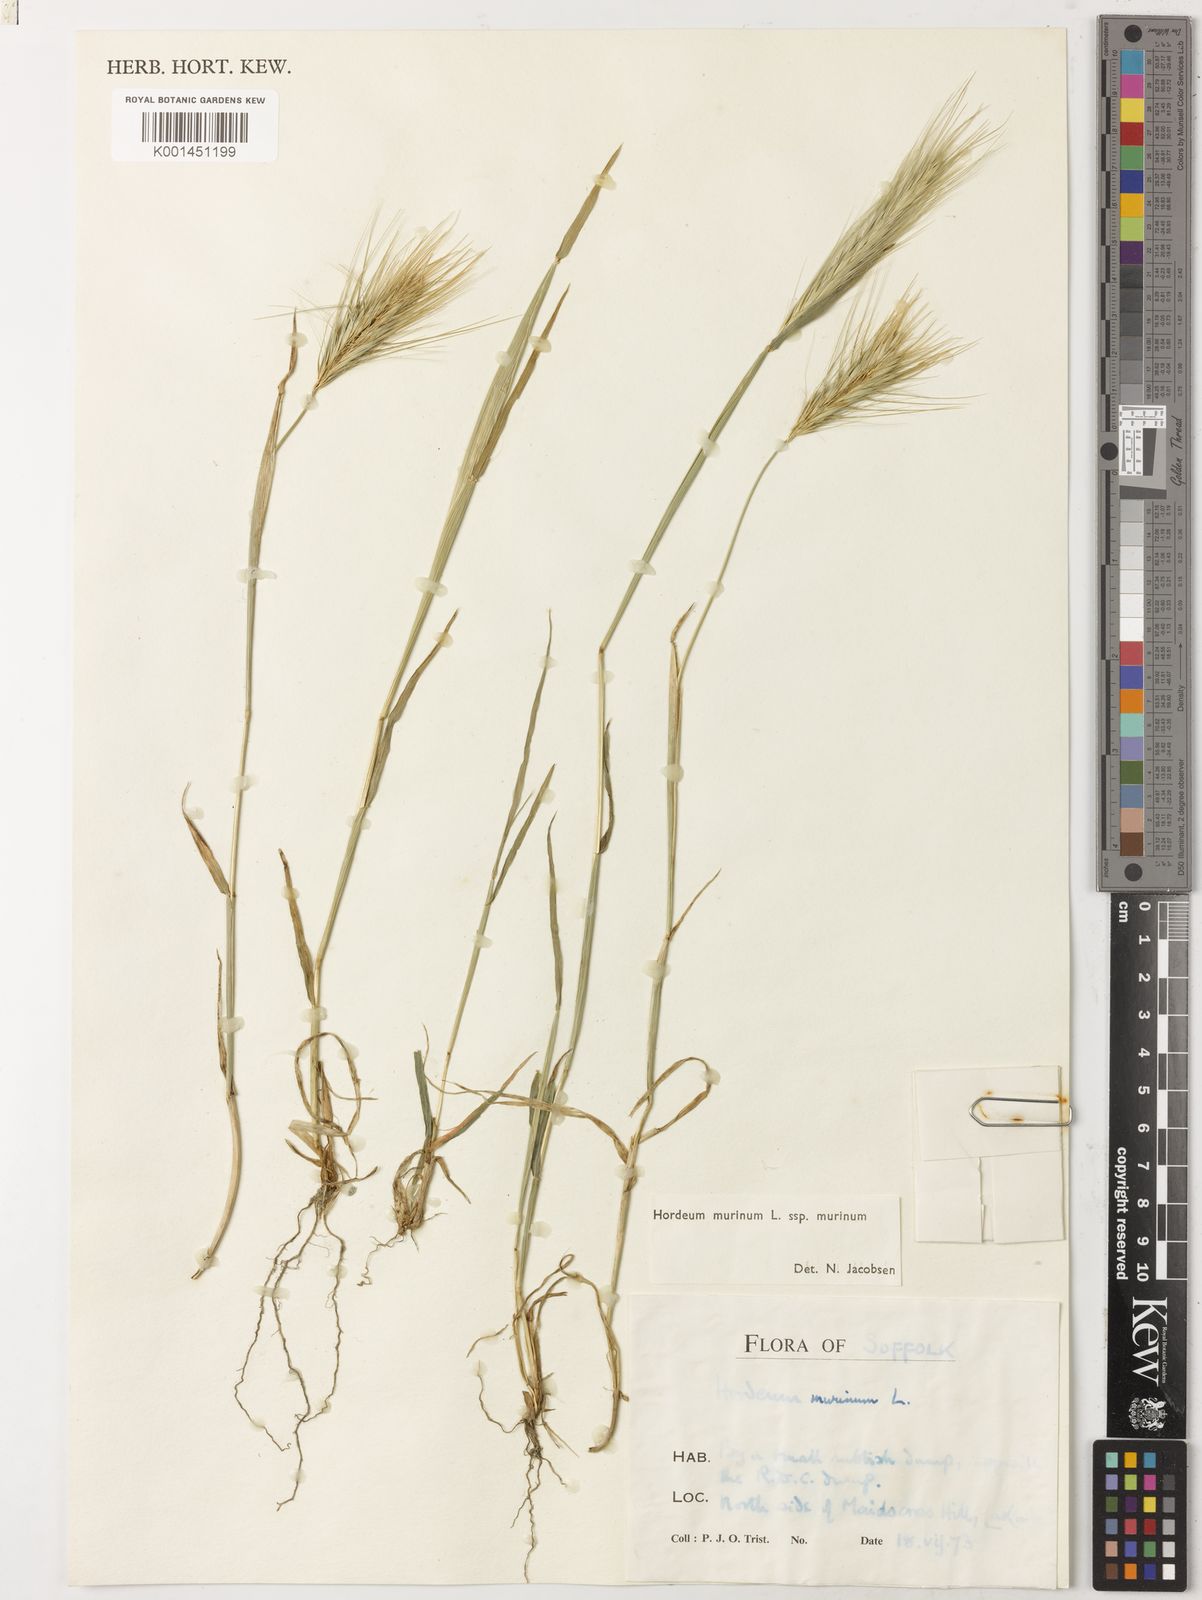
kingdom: Plantae
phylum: Tracheophyta
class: Liliopsida
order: Poales
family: Poaceae
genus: Hordeum
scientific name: Hordeum murinum
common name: Wall barley
